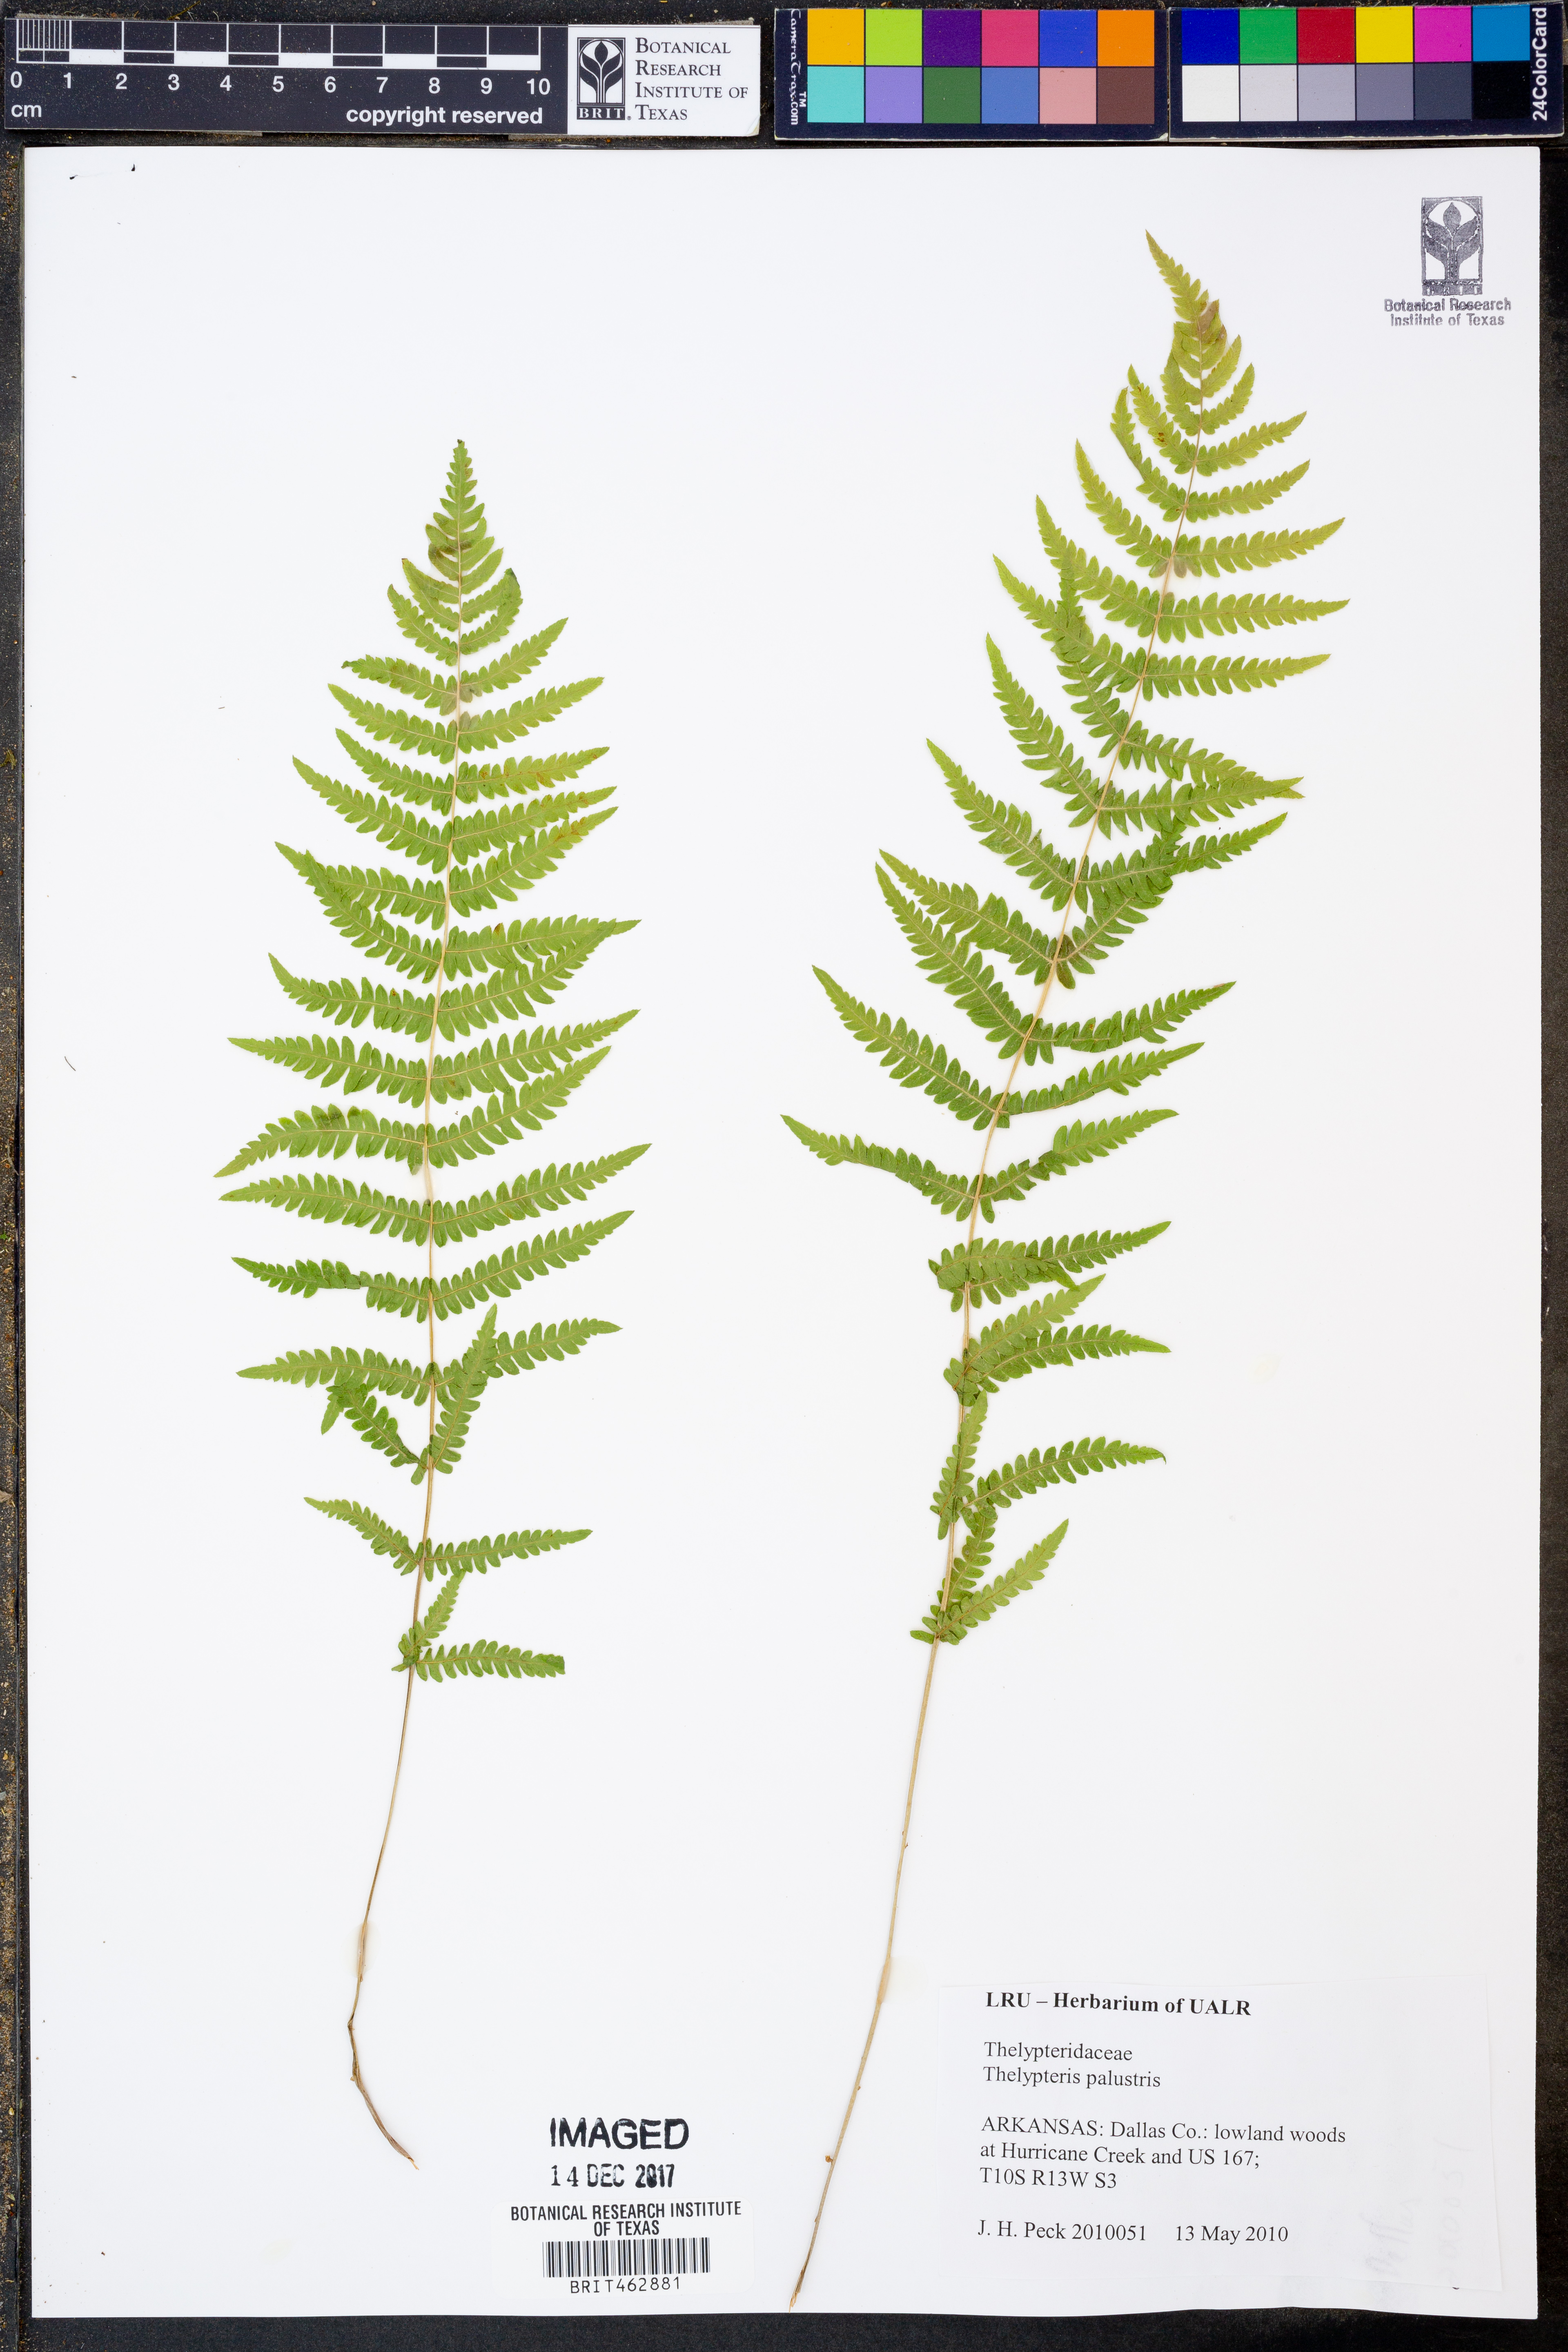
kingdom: Plantae
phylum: Tracheophyta
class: Polypodiopsida
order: Polypodiales
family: Thelypteridaceae
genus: Thelypteris
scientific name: Thelypteris palustris
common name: Marsh fern
